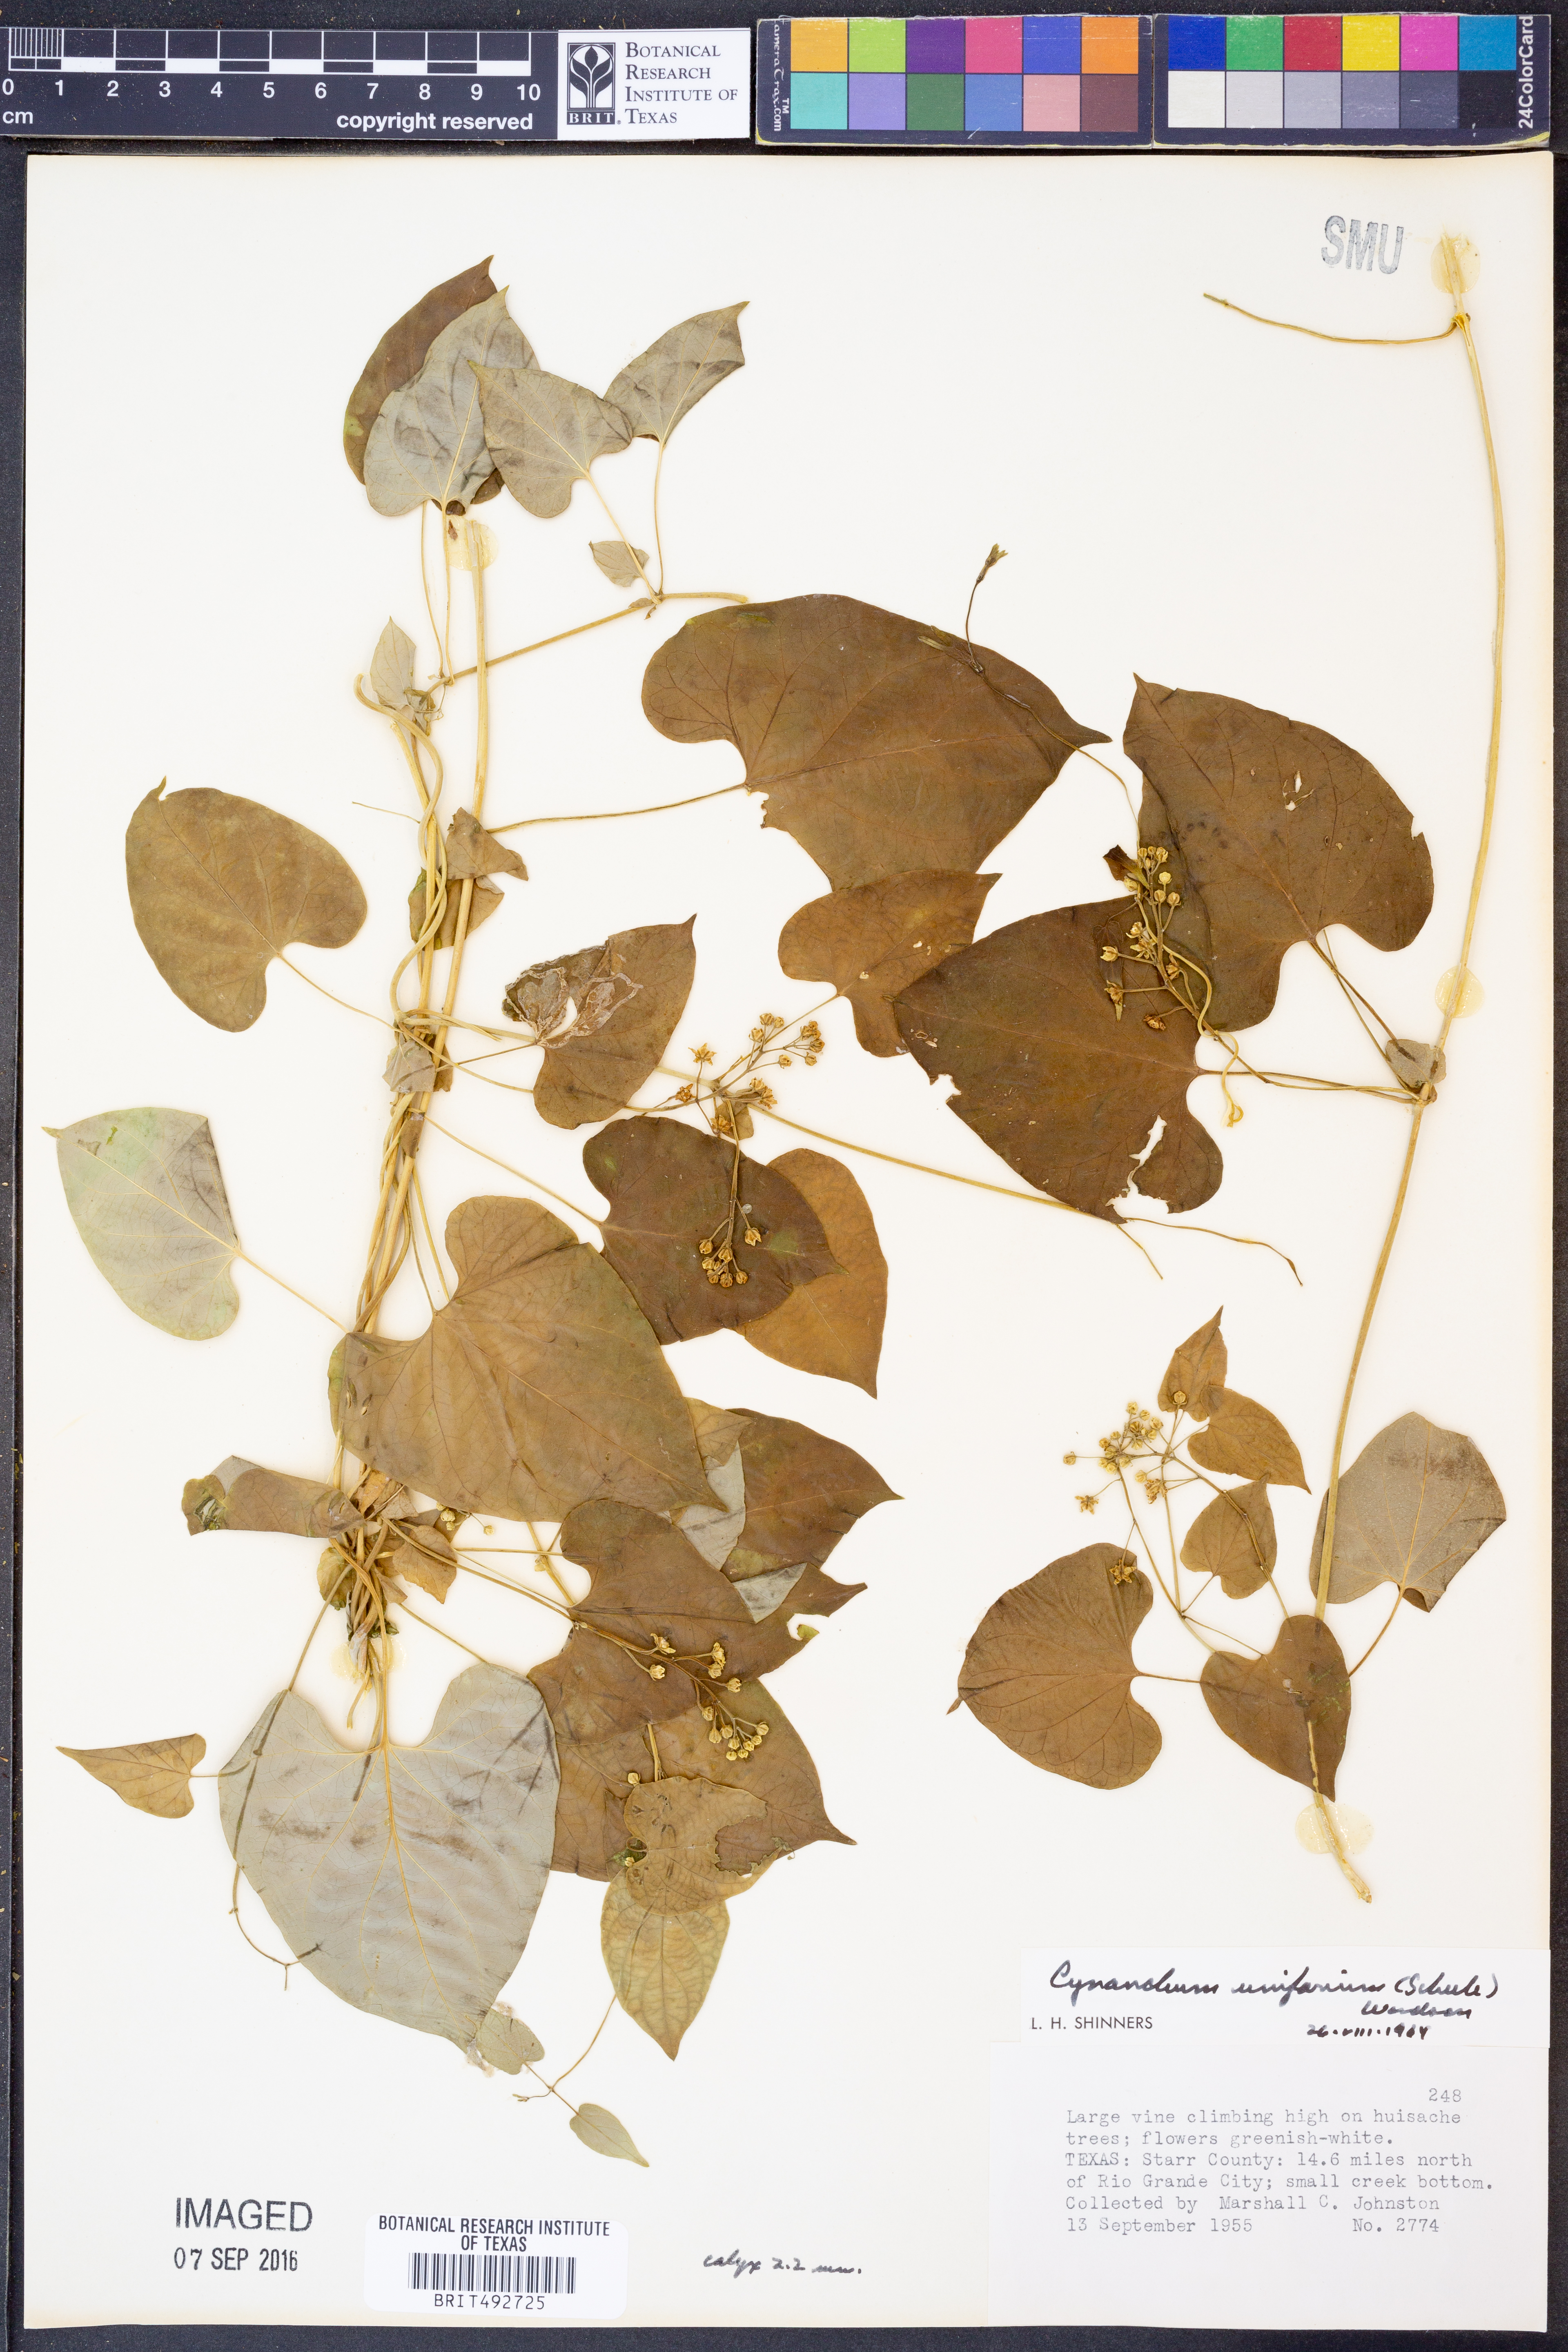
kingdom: Plantae
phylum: Tracheophyta
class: Magnoliopsida
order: Gentianales
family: Apocynaceae
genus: Cynanchum
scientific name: Cynanchum racemosum
